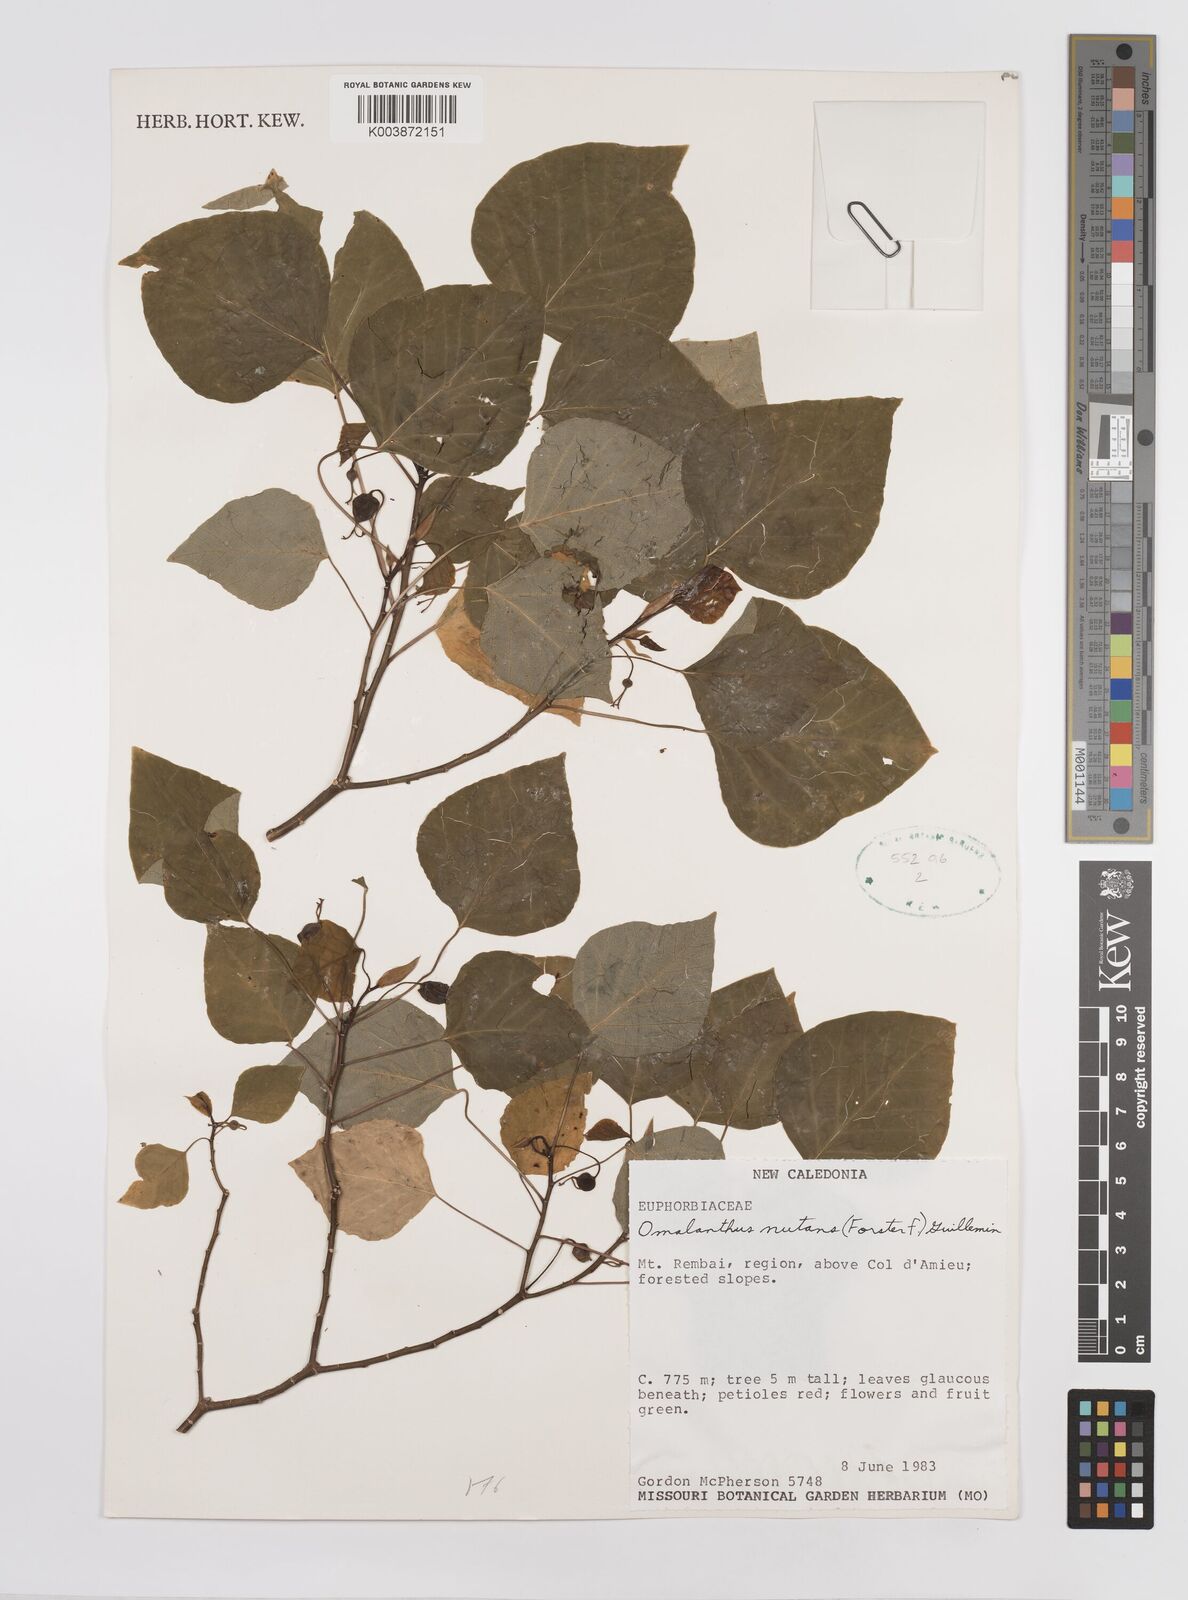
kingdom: Plantae
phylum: Tracheophyta
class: Magnoliopsida
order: Malpighiales
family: Euphorbiaceae
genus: Homalanthus
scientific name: Homalanthus nutans
